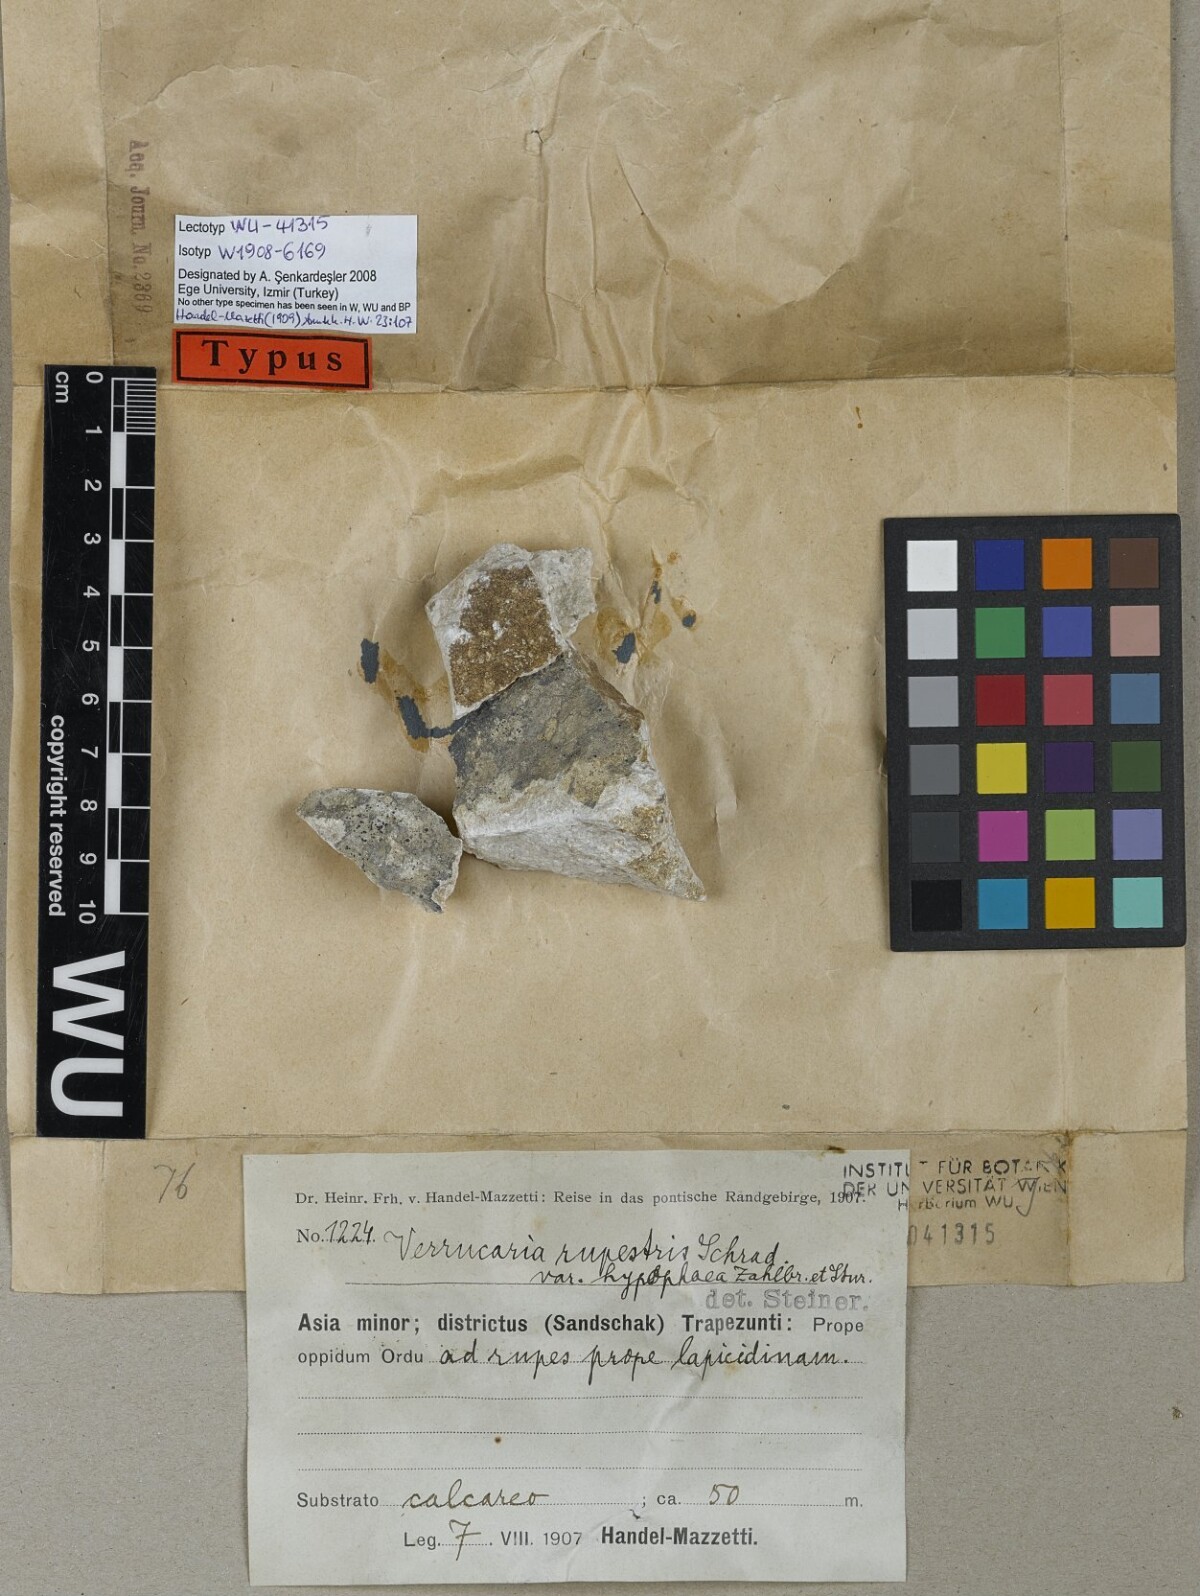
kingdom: Fungi
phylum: Ascomycota
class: Eurotiomycetes
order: Verrucariales
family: Verrucariaceae
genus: Verrucaria
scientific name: Verrucaria subtilis
